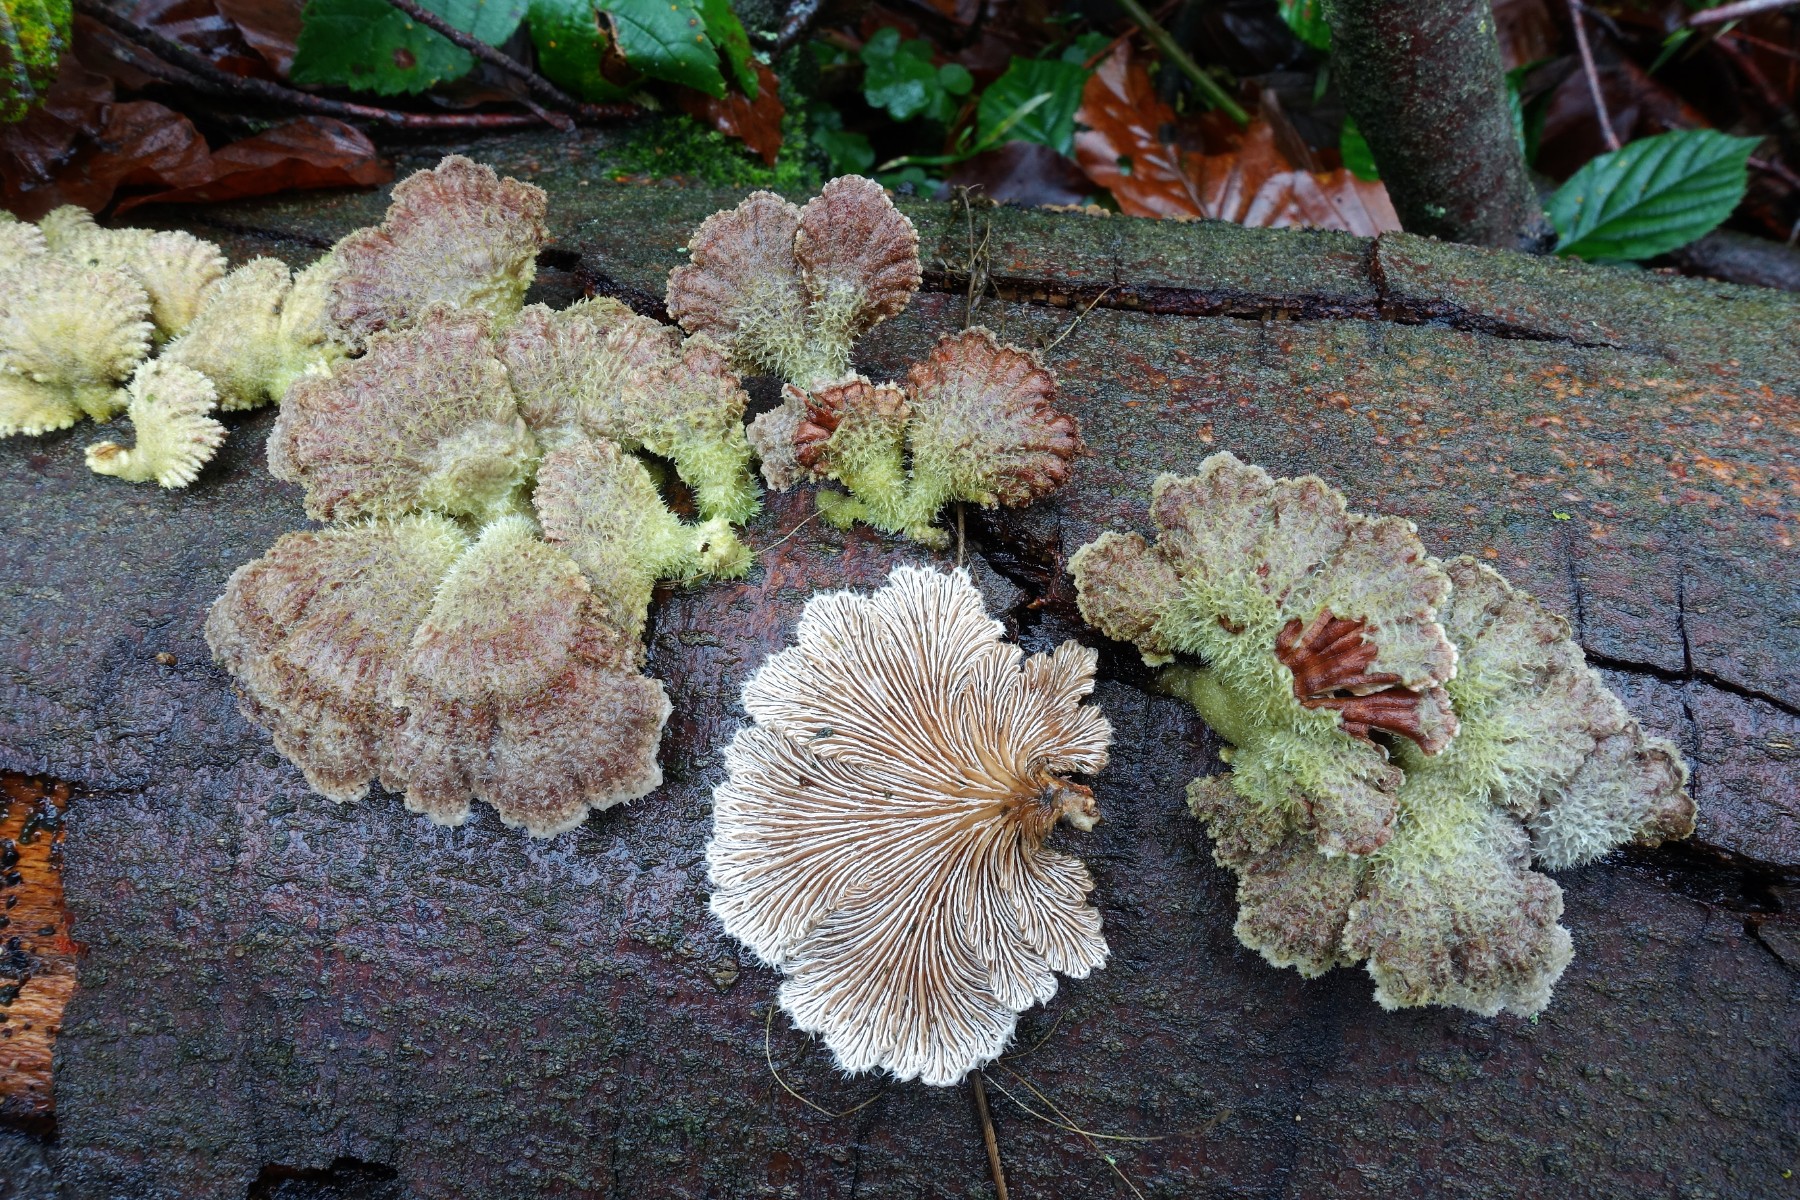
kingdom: Fungi
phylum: Basidiomycota
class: Agaricomycetes
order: Agaricales
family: Schizophyllaceae
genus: Schizophyllum
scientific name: Schizophyllum commune
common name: kløvblad
